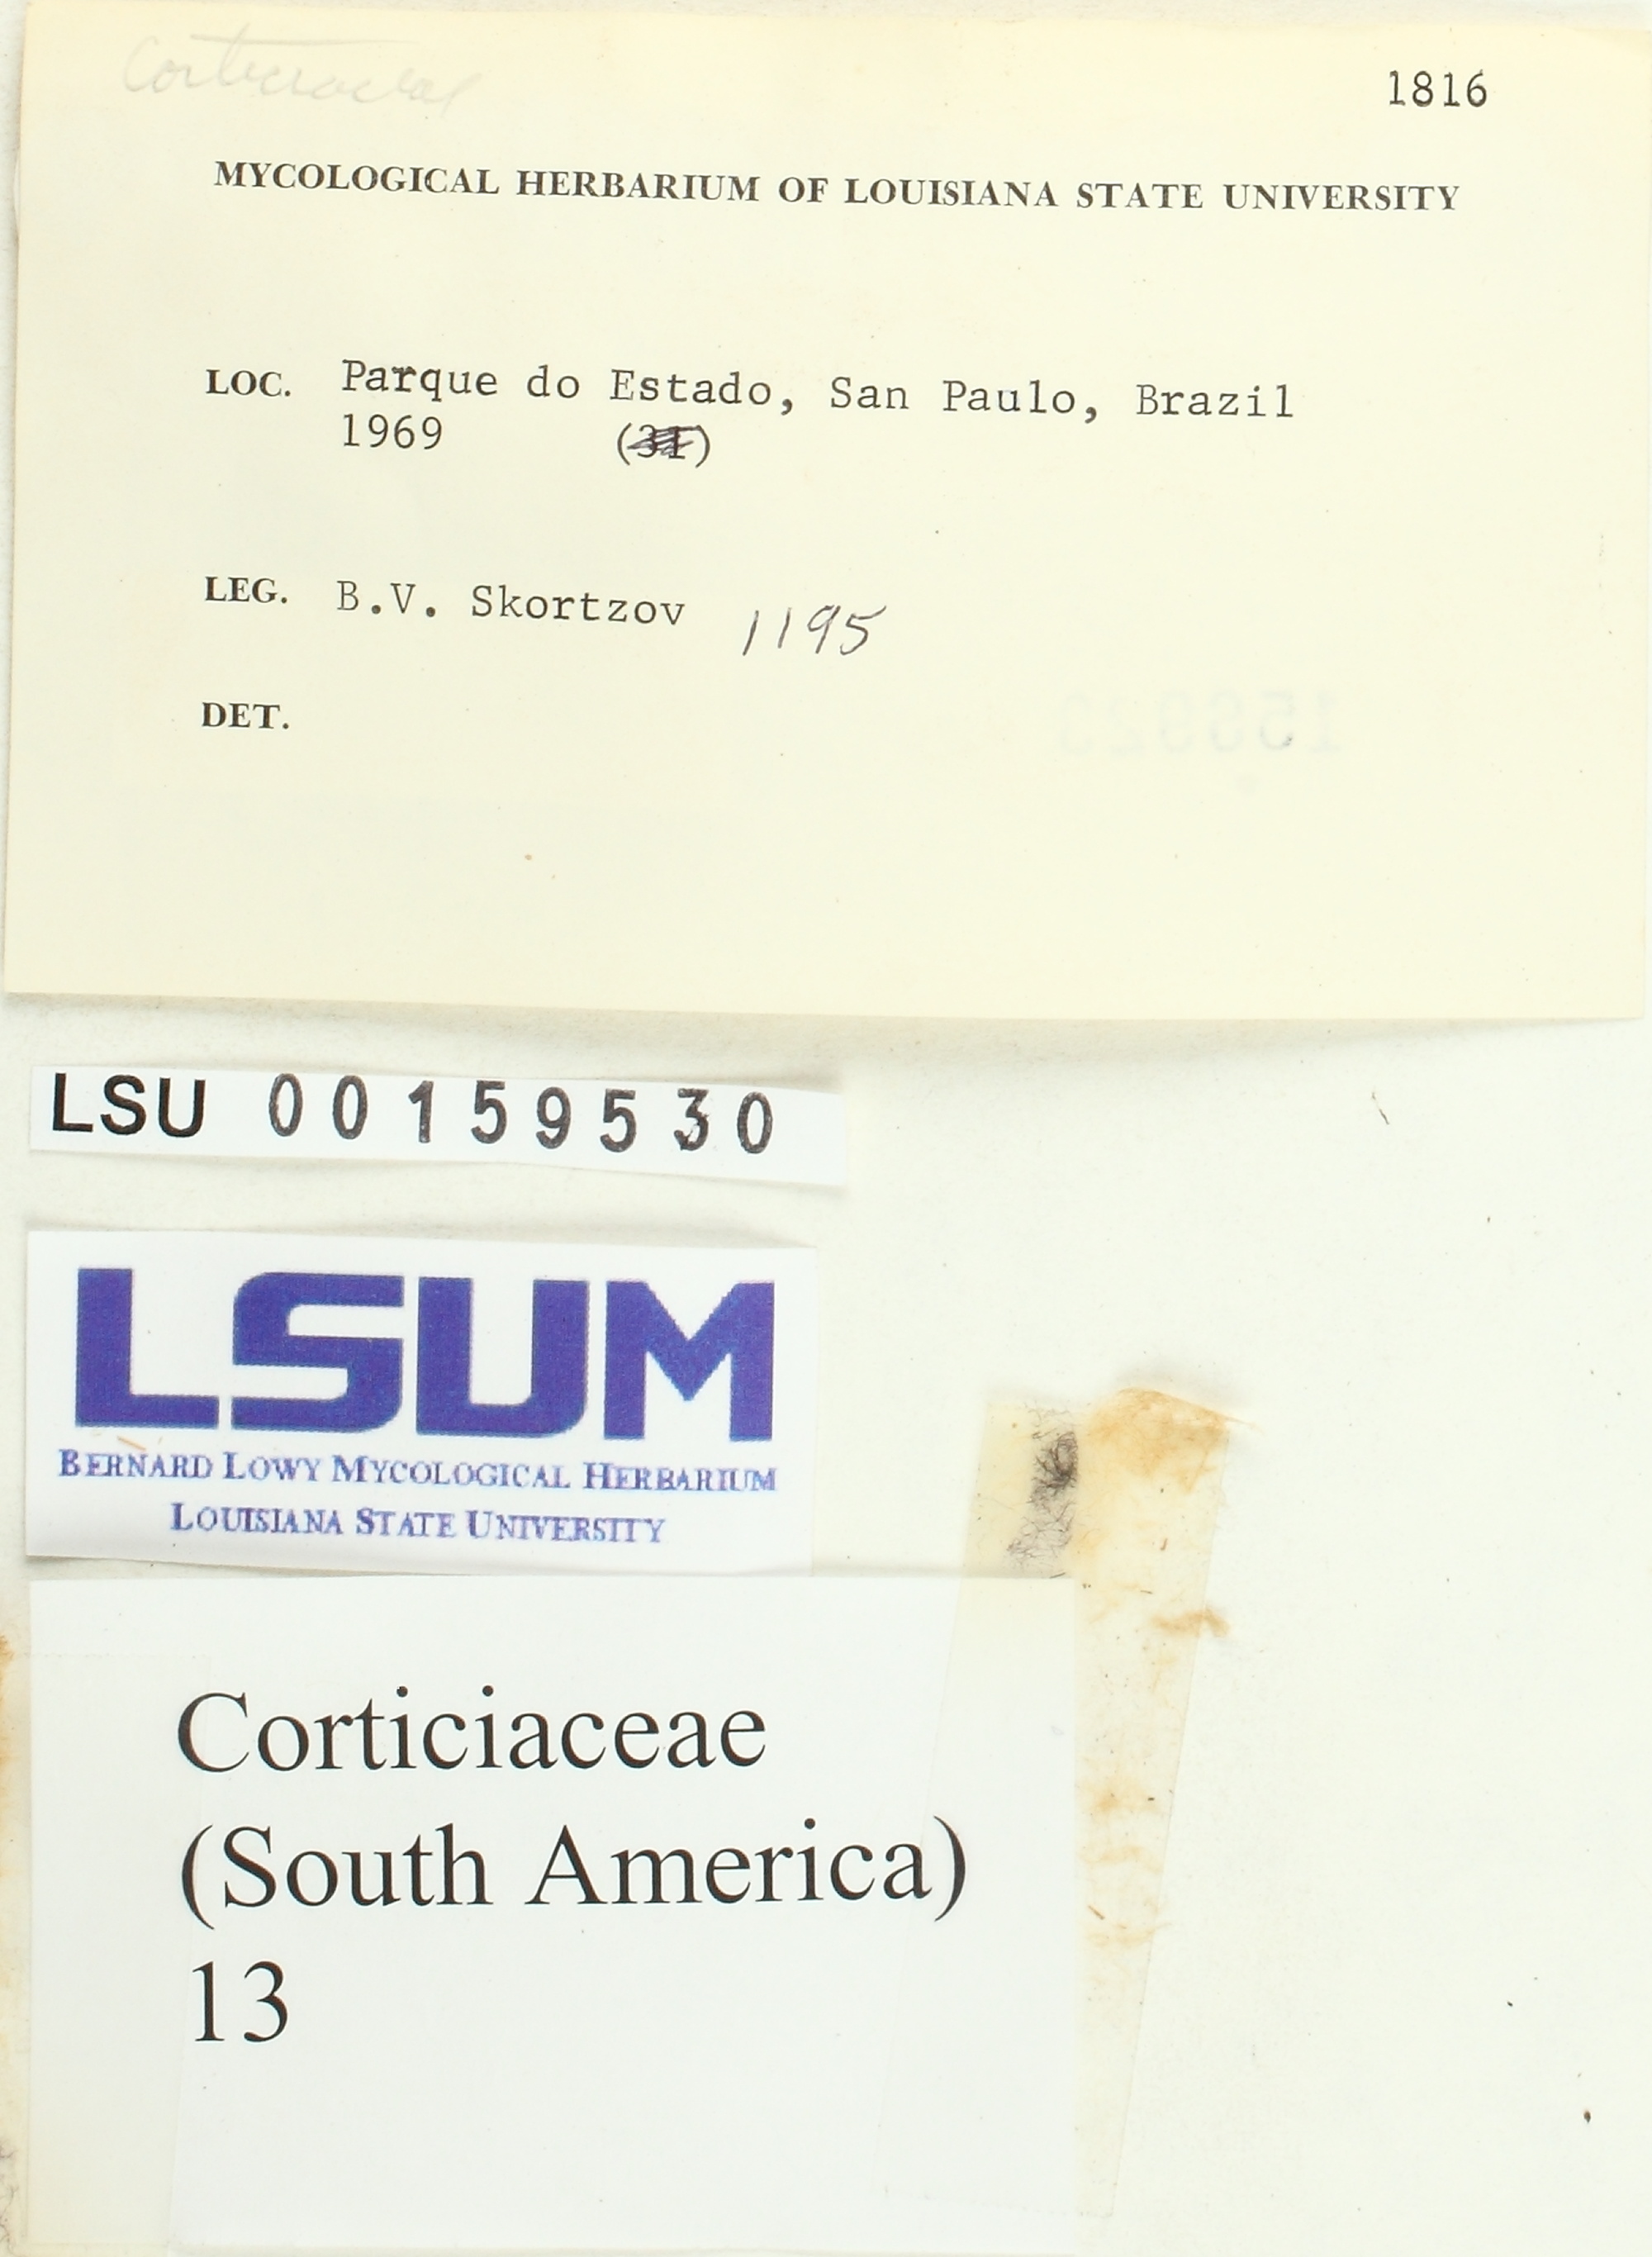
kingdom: Fungi
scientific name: Fungi
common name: Fungi
